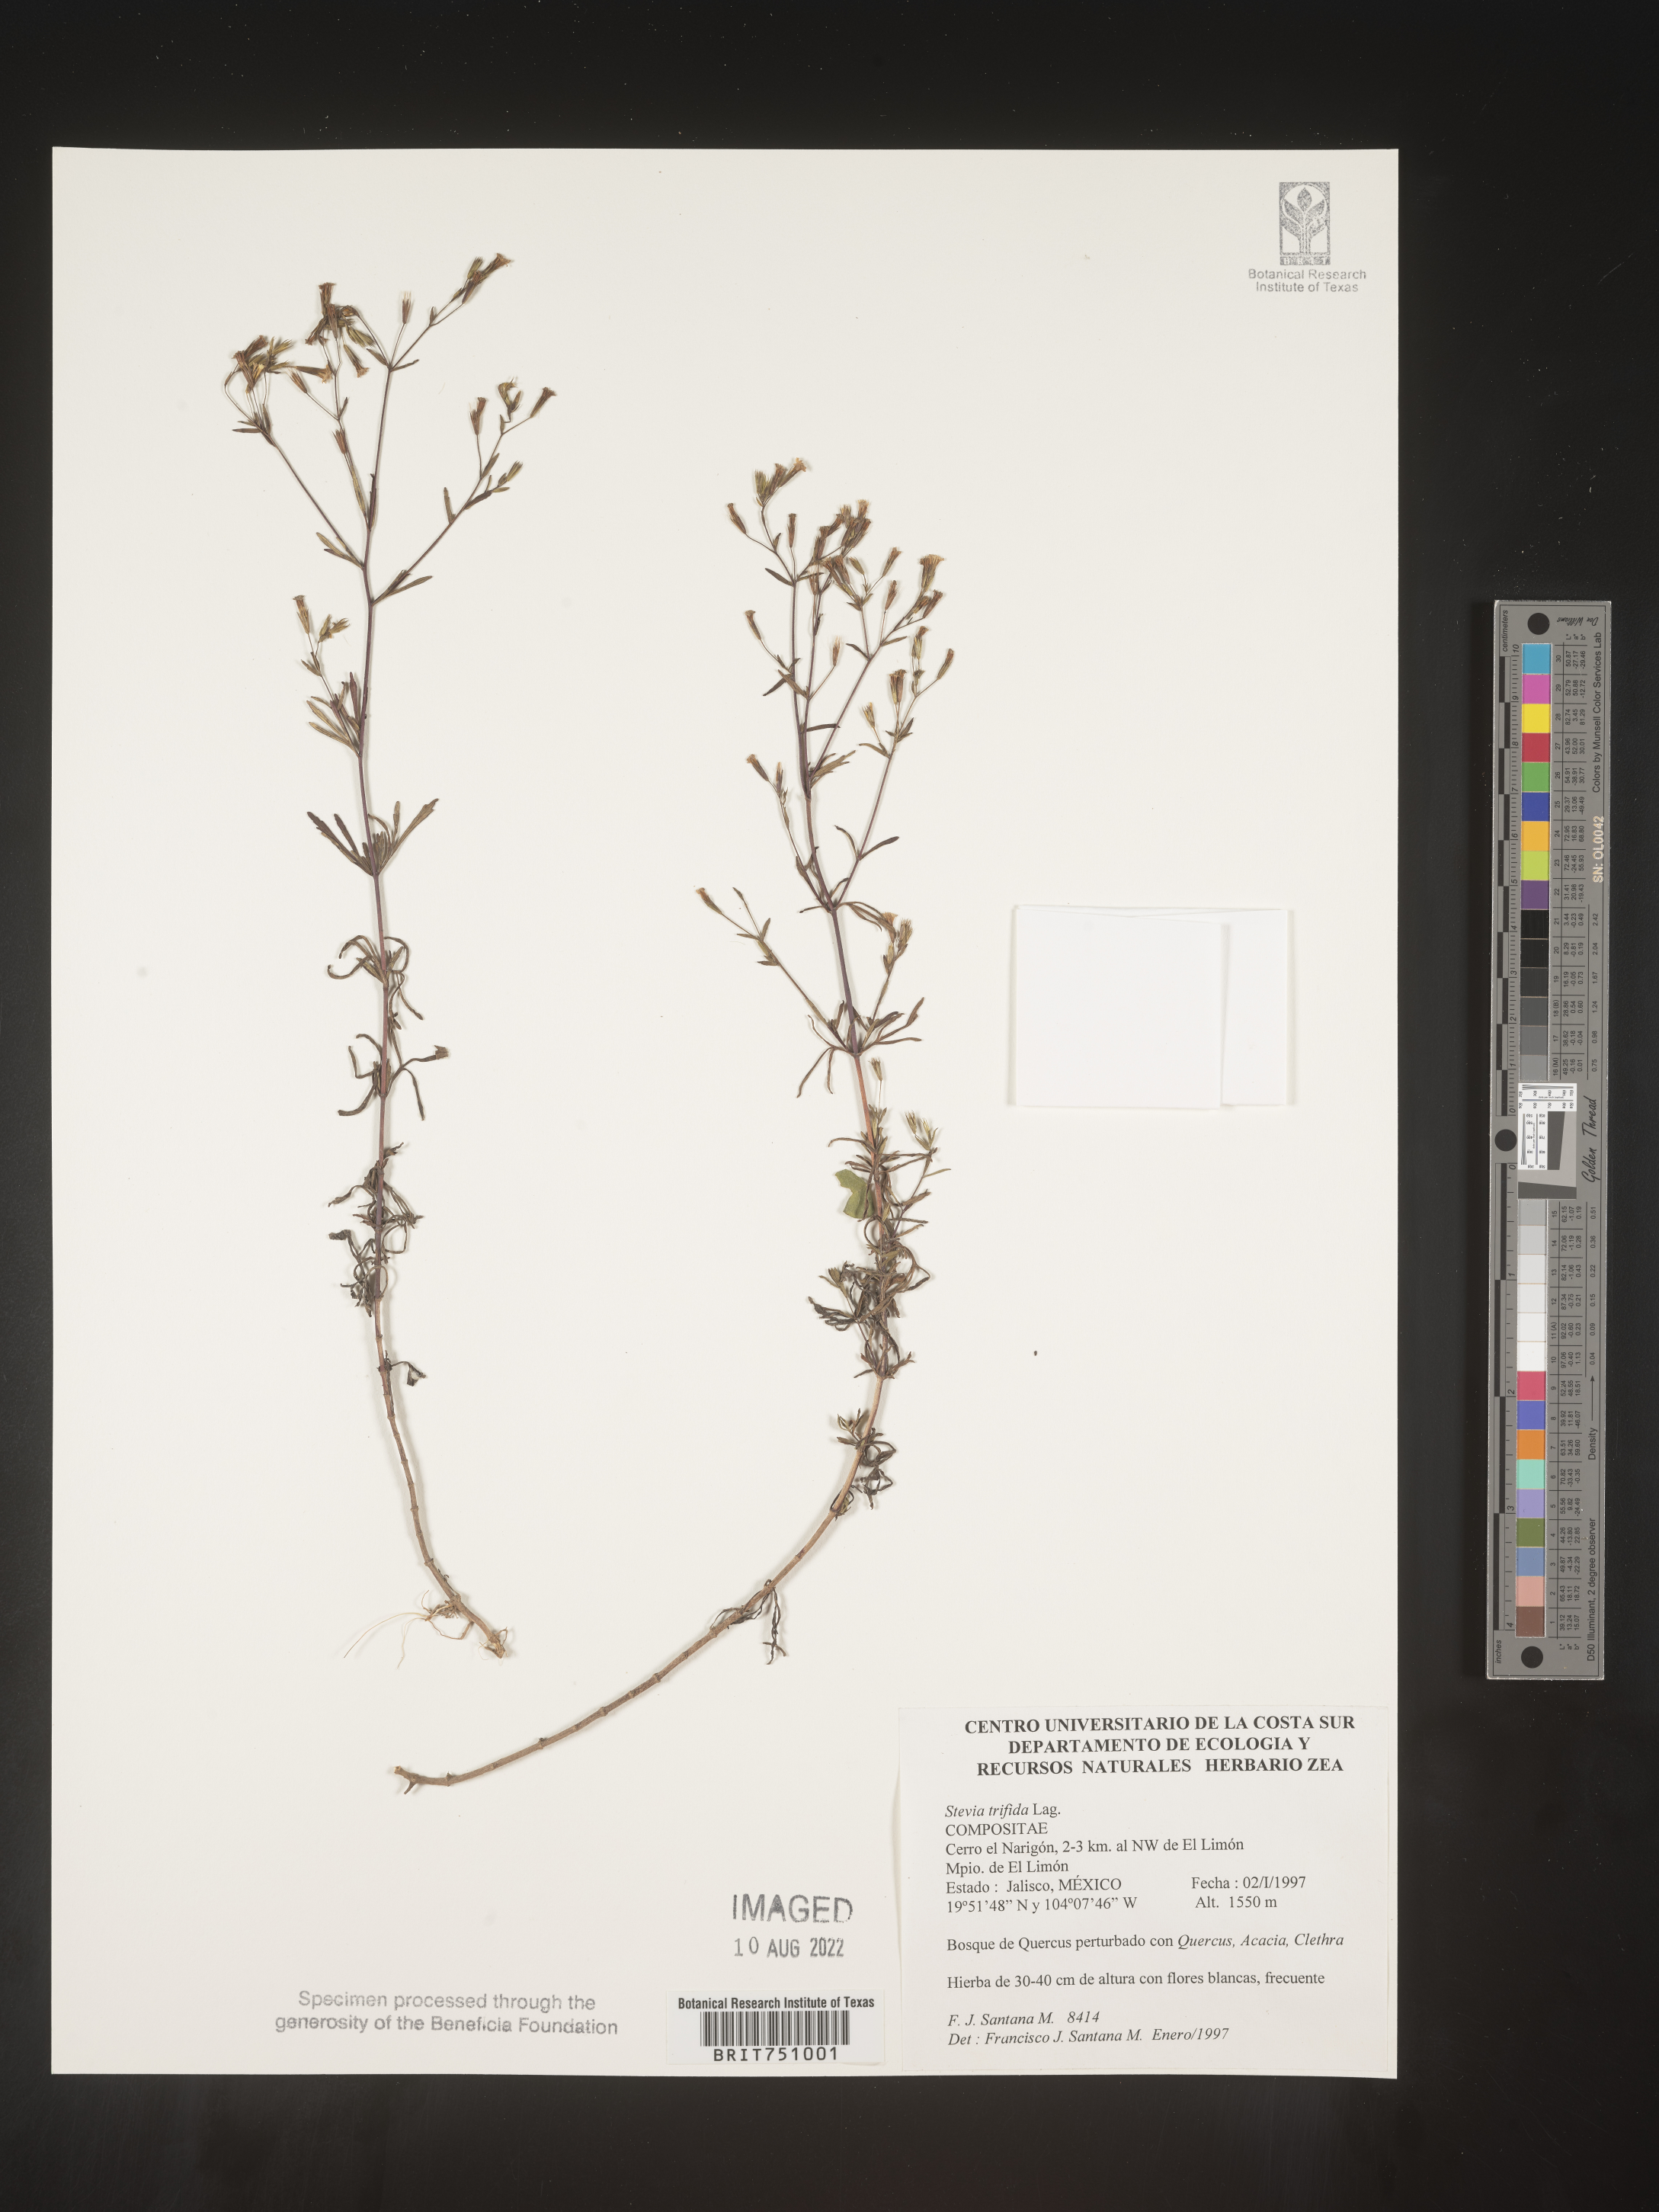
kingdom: Plantae
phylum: Tracheophyta
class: Magnoliopsida
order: Asterales
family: Asteraceae
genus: Stevia
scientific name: Stevia
